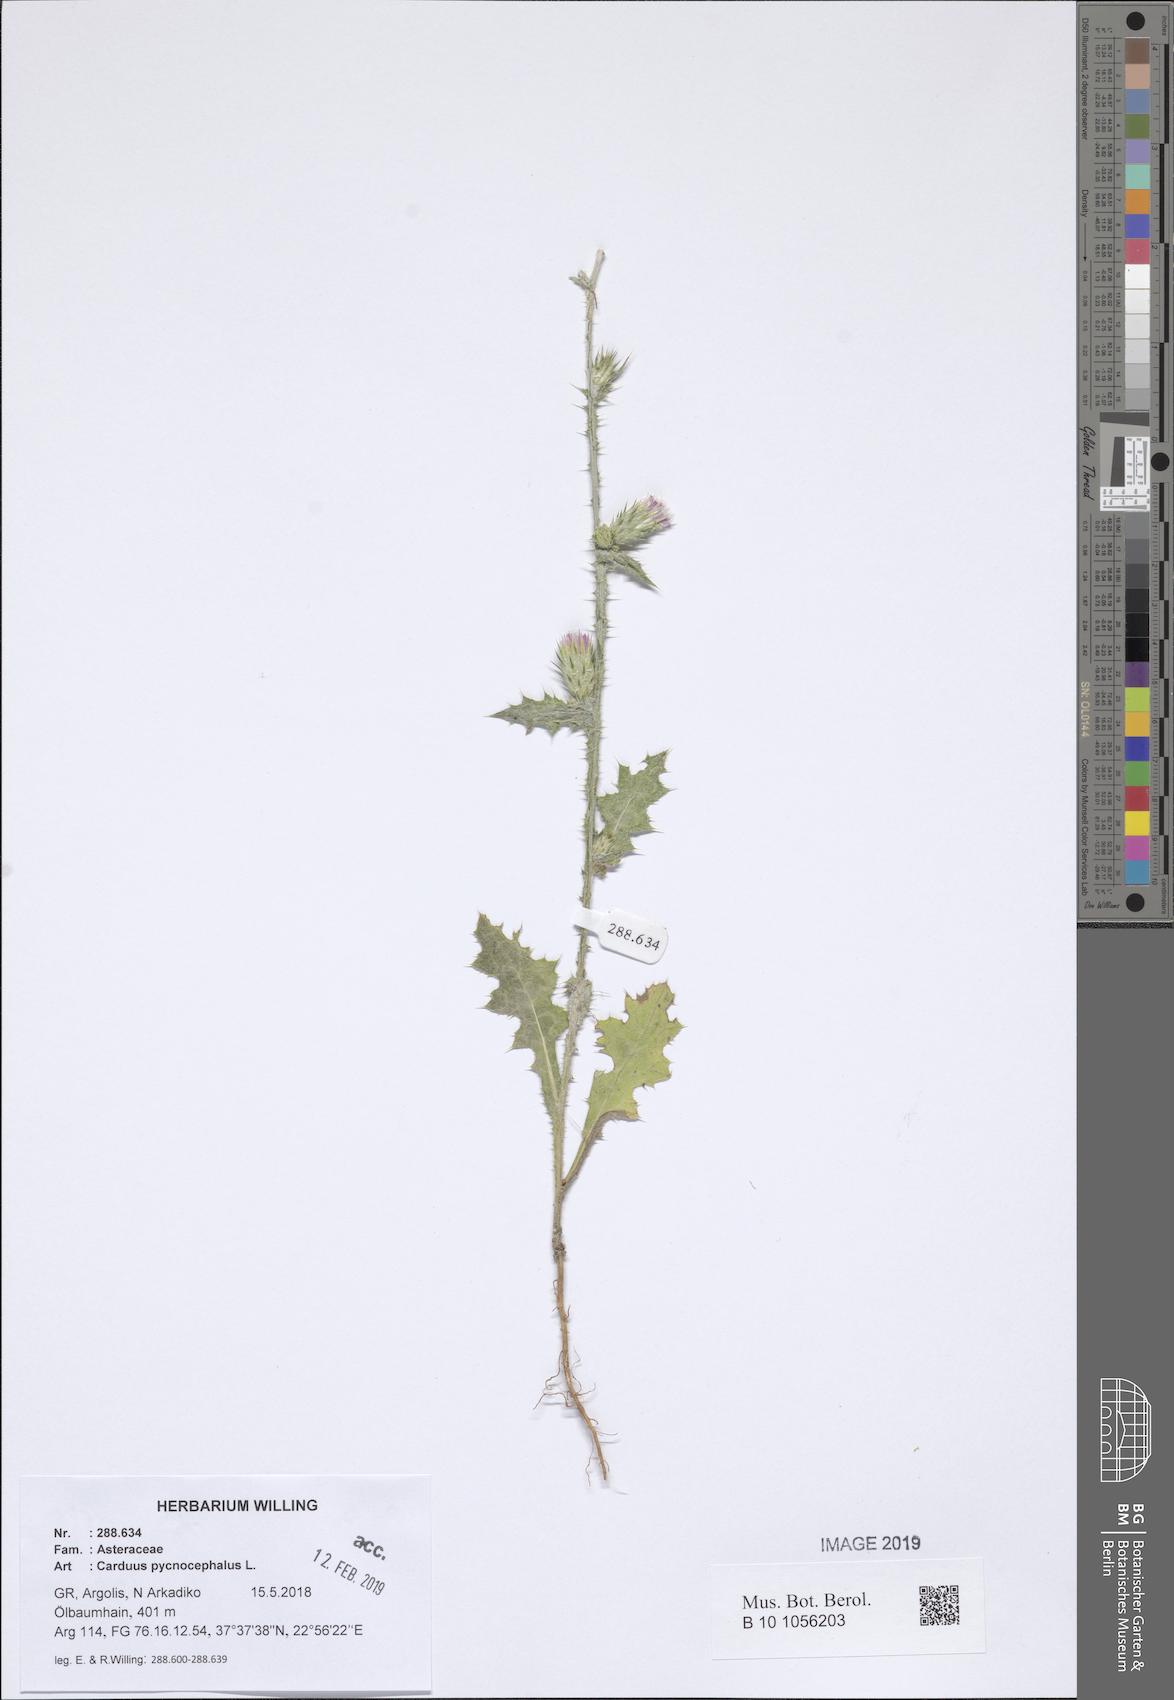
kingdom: Plantae
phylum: Tracheophyta
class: Magnoliopsida
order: Asterales
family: Asteraceae
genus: Carduus
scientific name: Carduus pycnocephalus
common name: Plymouth thistle
